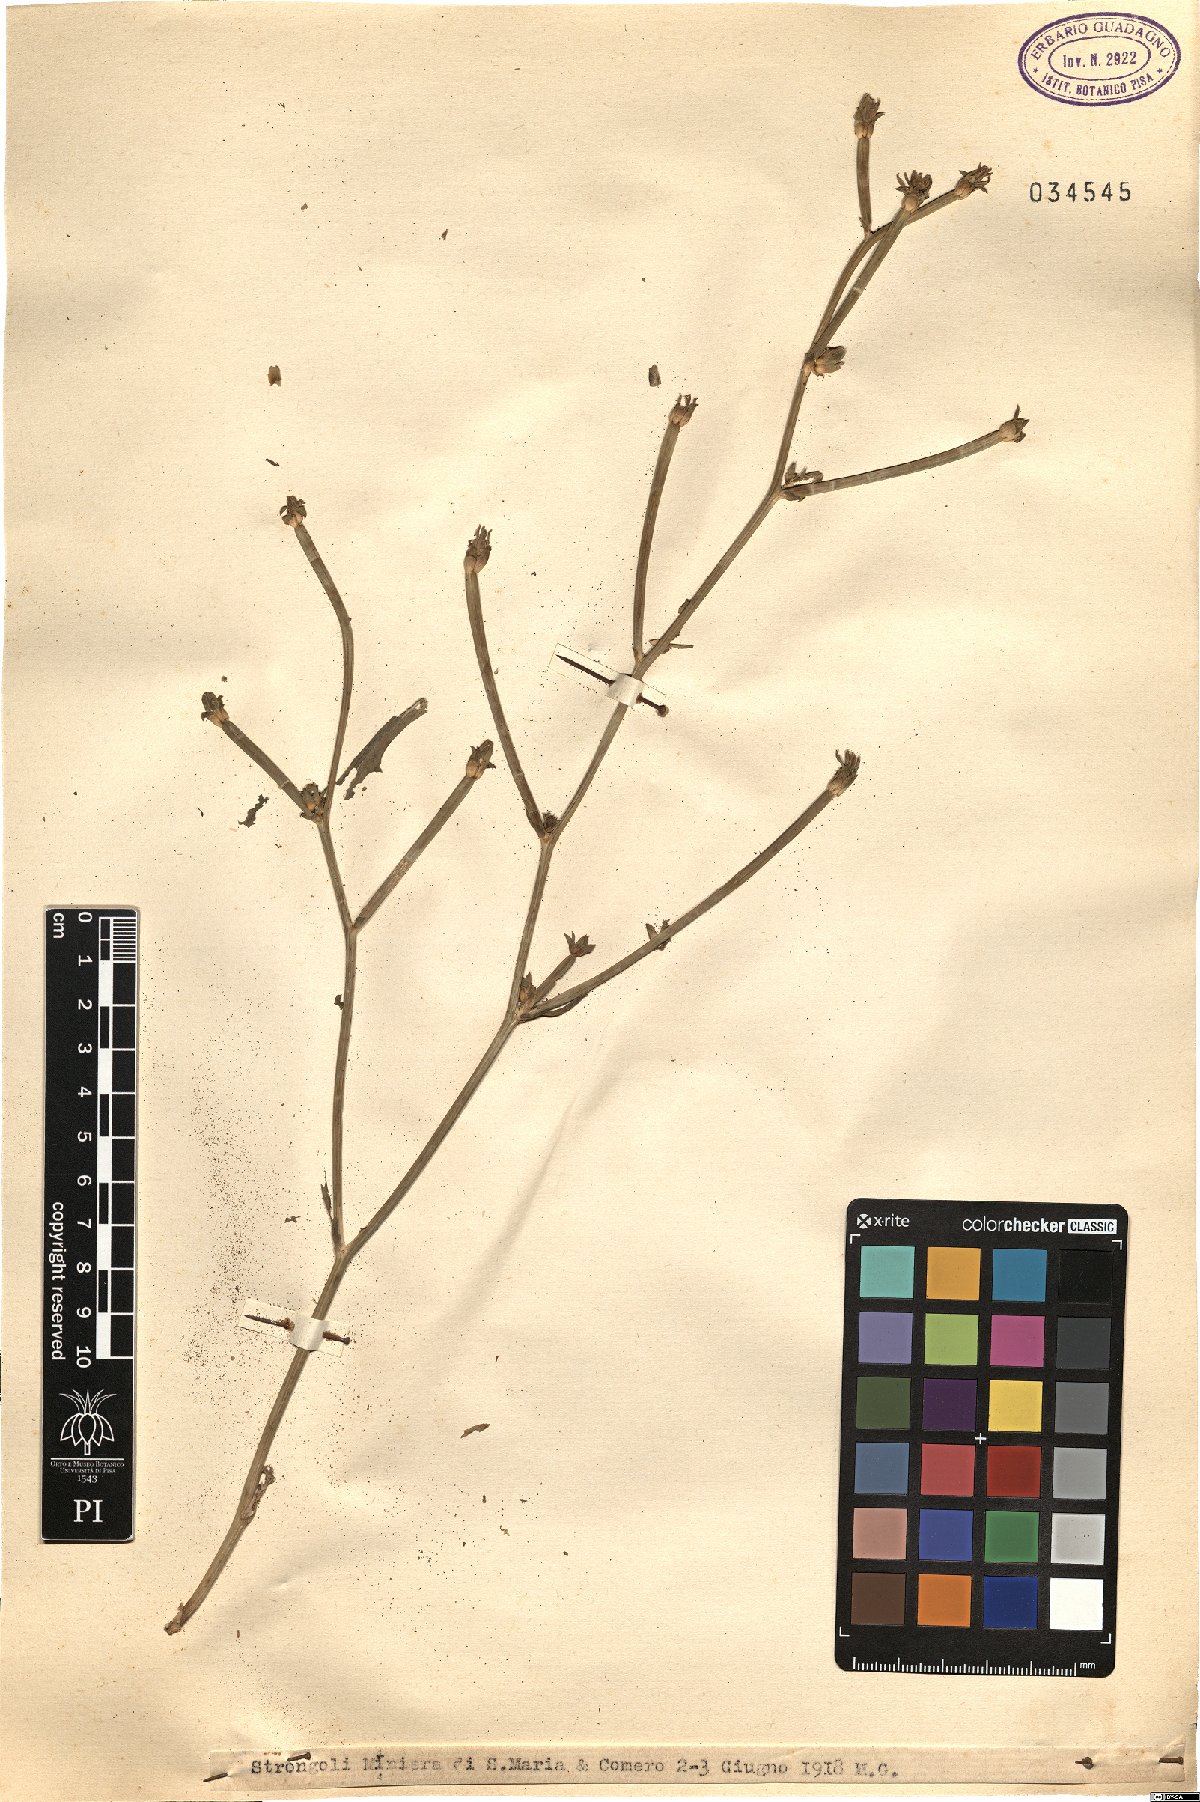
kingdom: Plantae
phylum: Tracheophyta
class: Magnoliopsida
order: Asterales
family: Asteraceae
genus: Cichorium
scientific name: Cichorium
